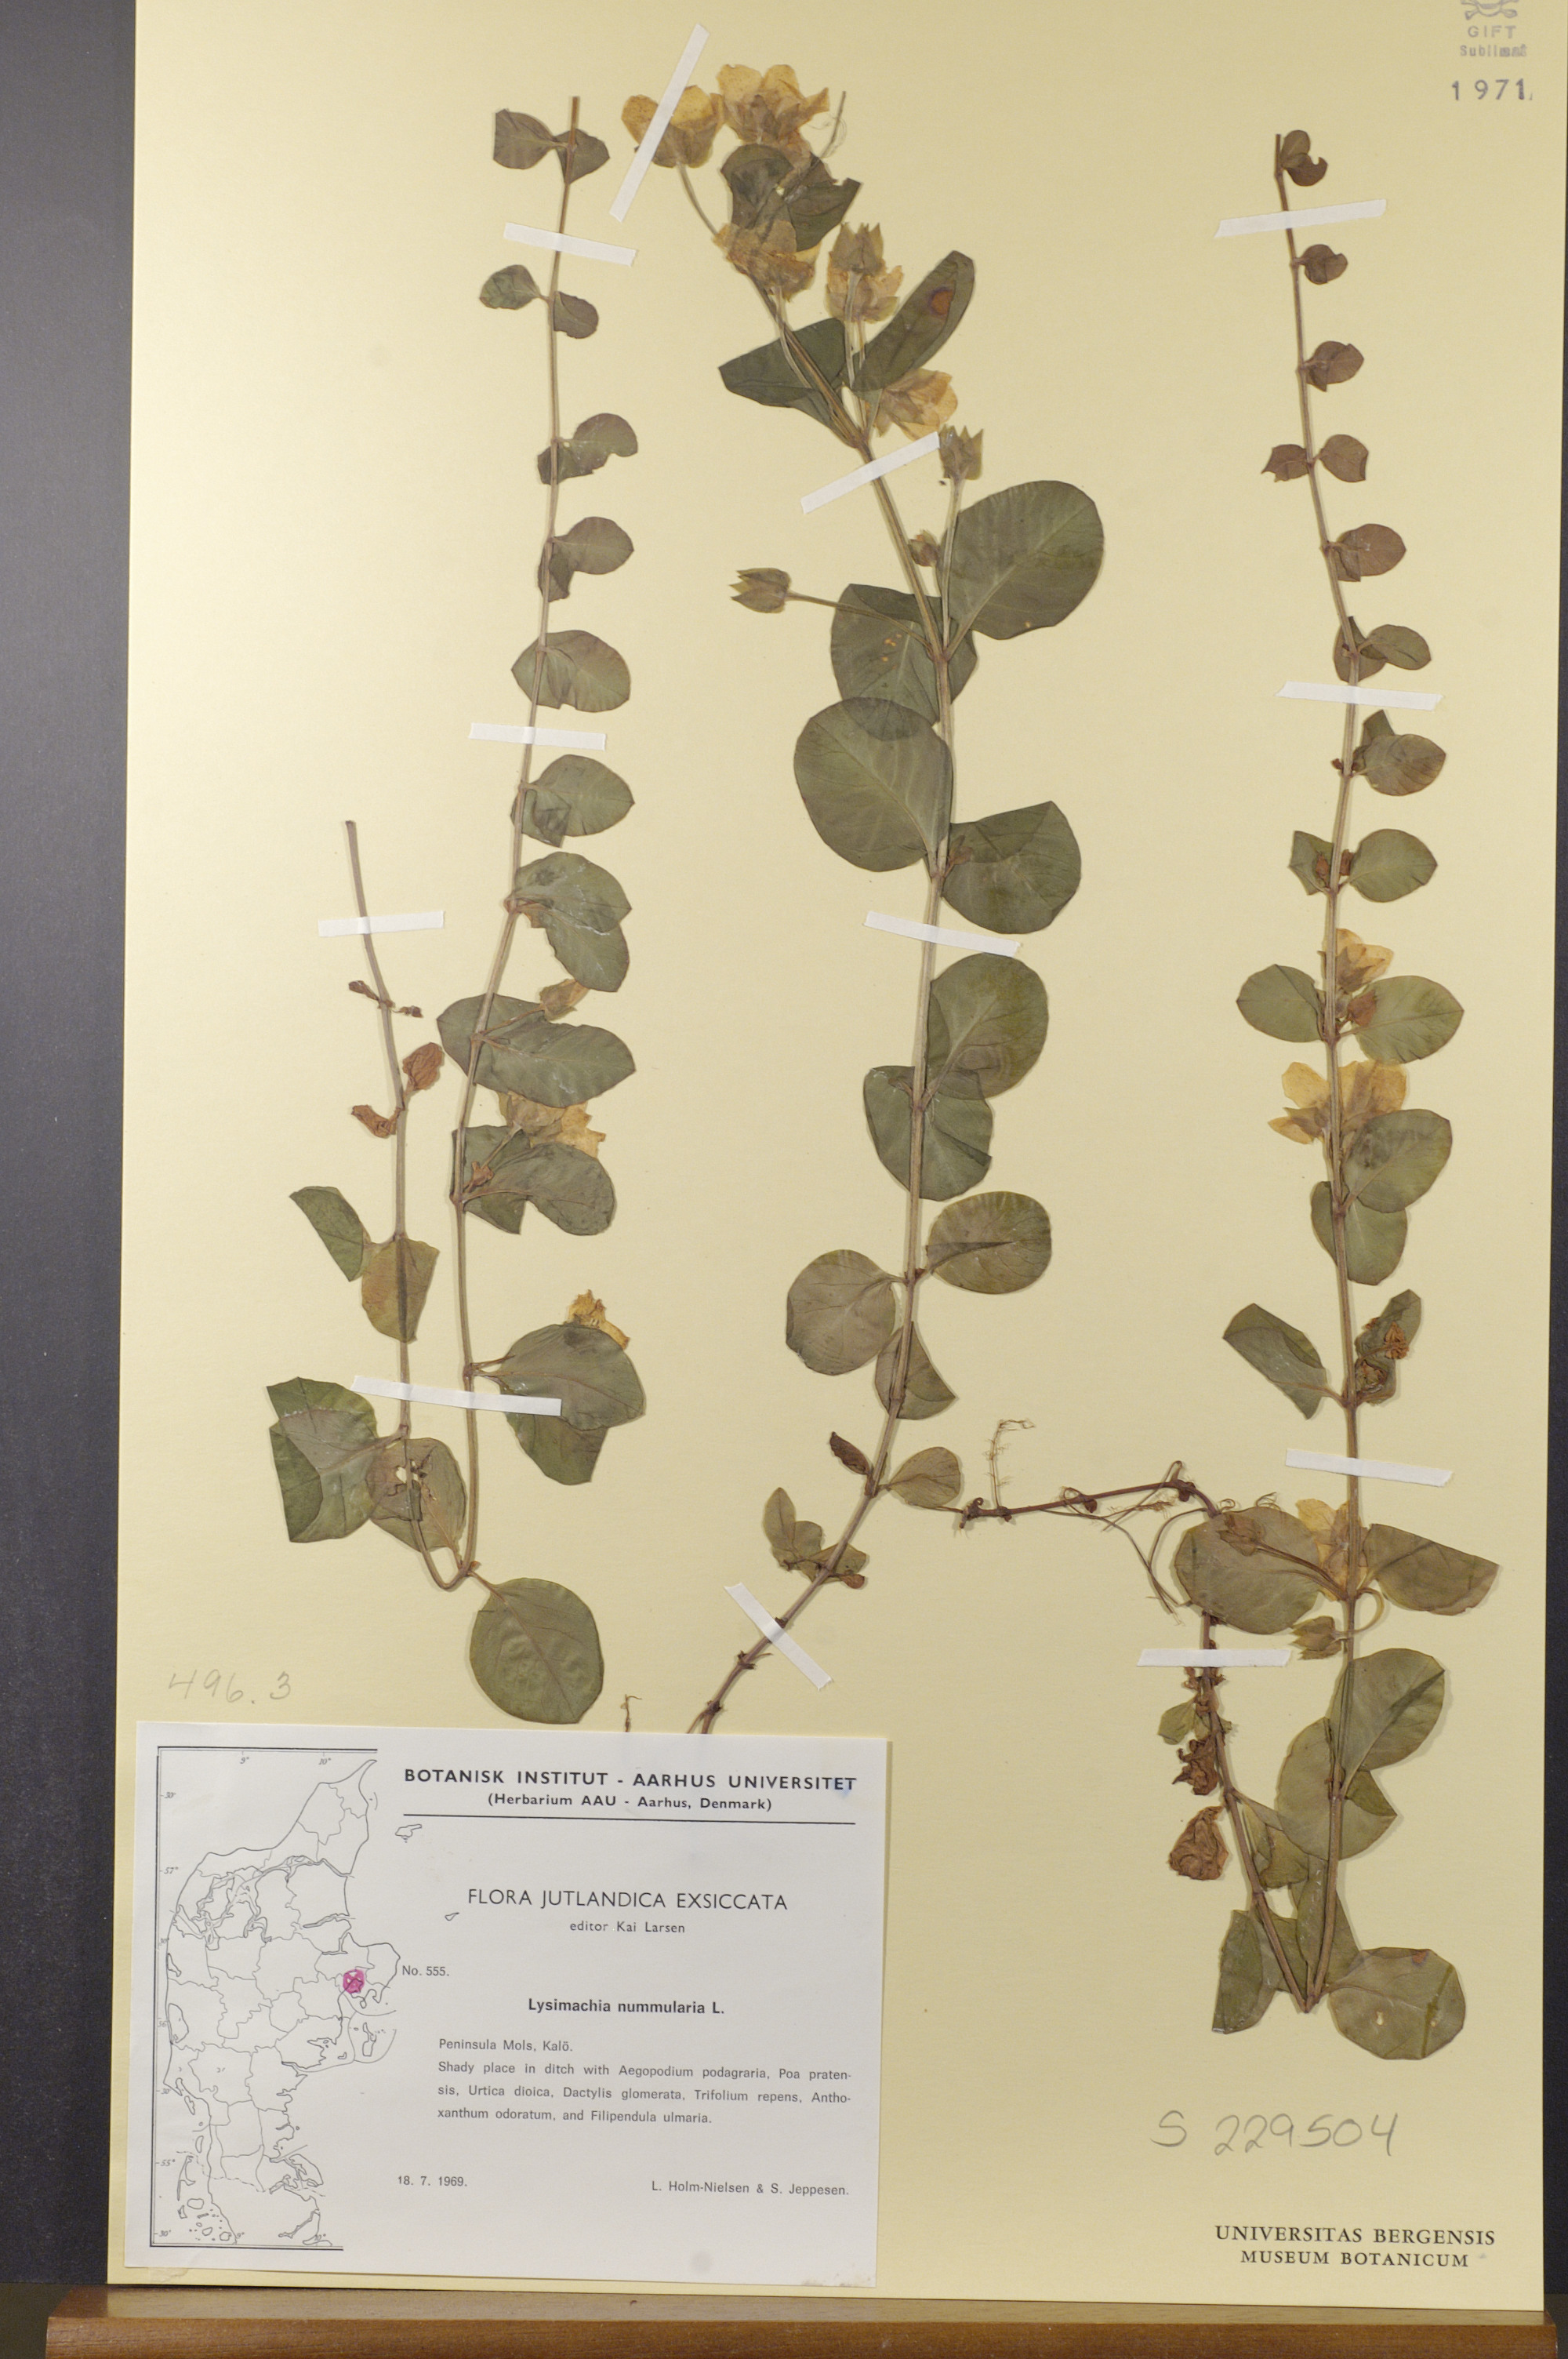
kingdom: Plantae
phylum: Tracheophyta
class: Magnoliopsida
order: Ericales
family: Primulaceae
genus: Lysimachia
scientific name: Lysimachia nummularia
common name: Moneywort
